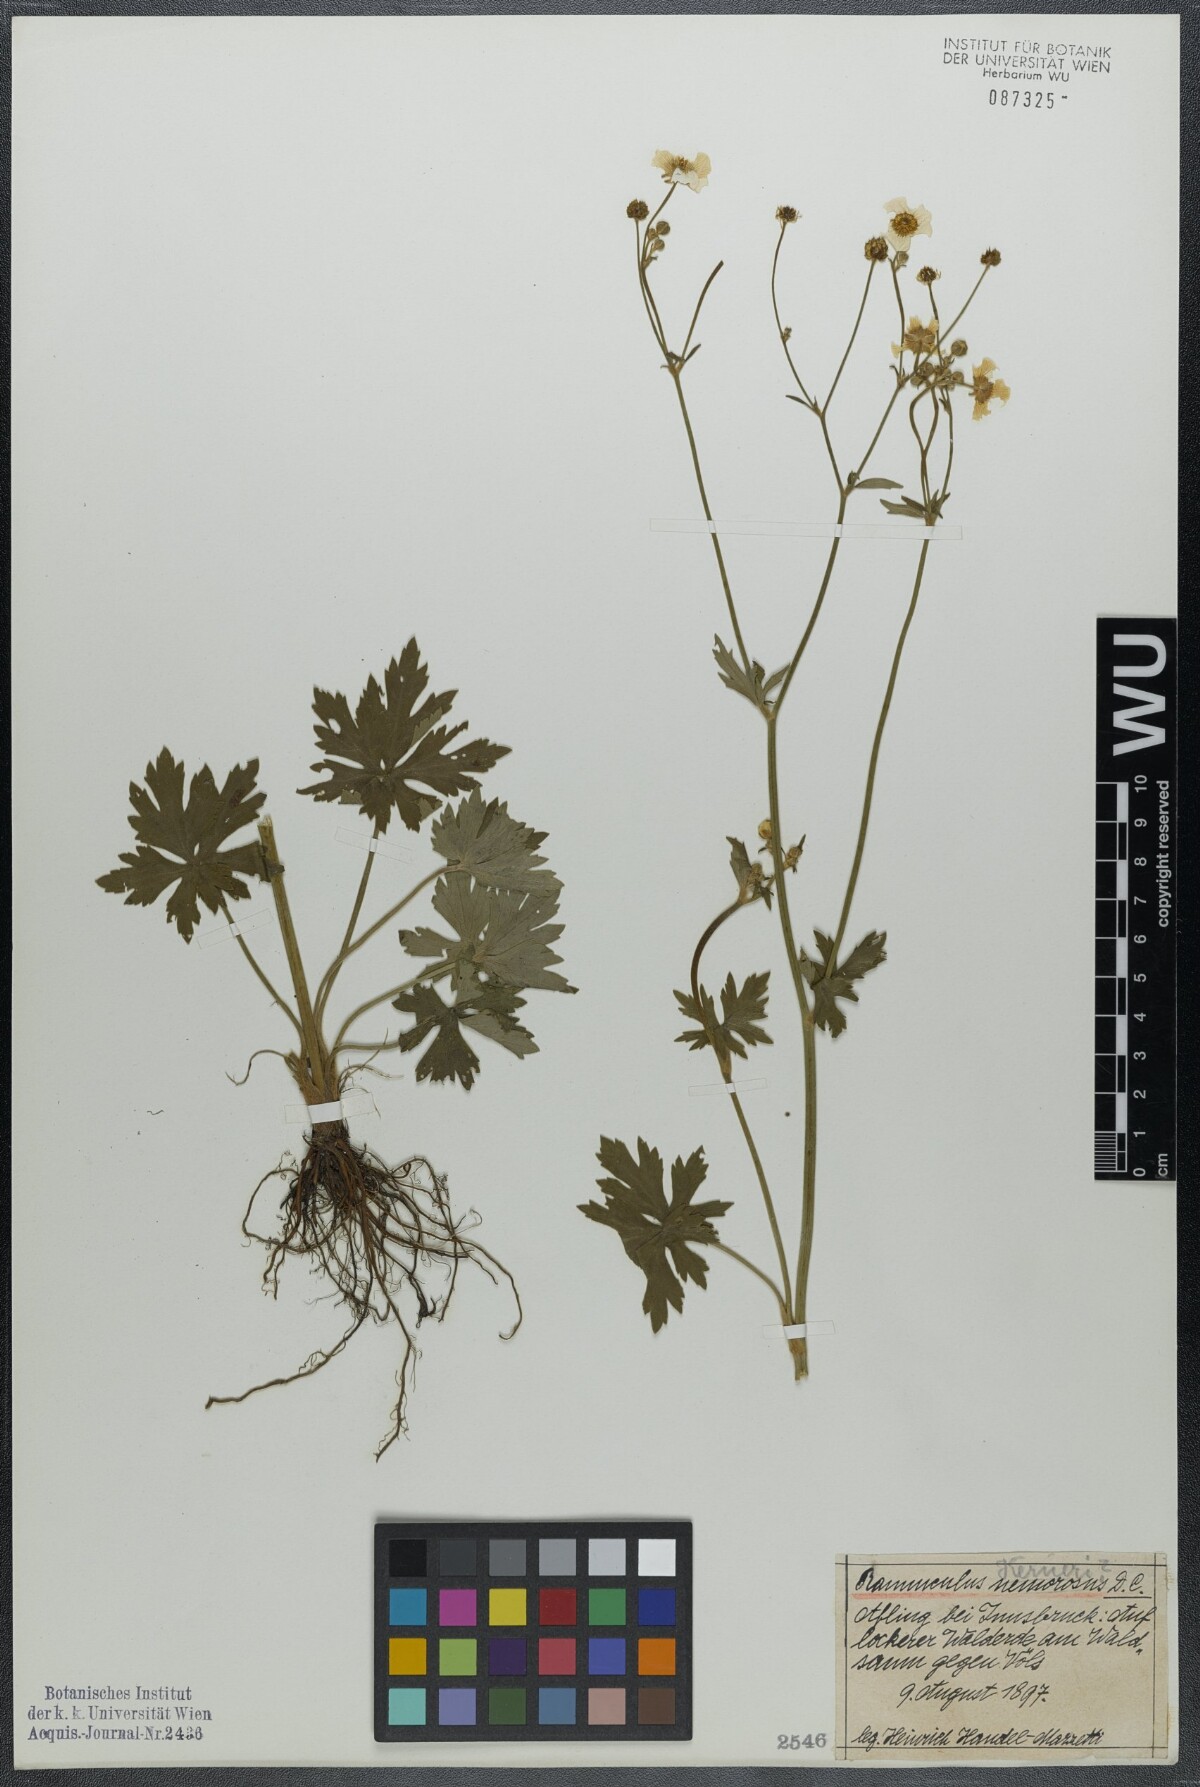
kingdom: Plantae
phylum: Tracheophyta
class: Magnoliopsida
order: Ranunculales
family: Ranunculaceae
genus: Ranunculus
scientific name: Ranunculus acris
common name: Meadow buttercup
